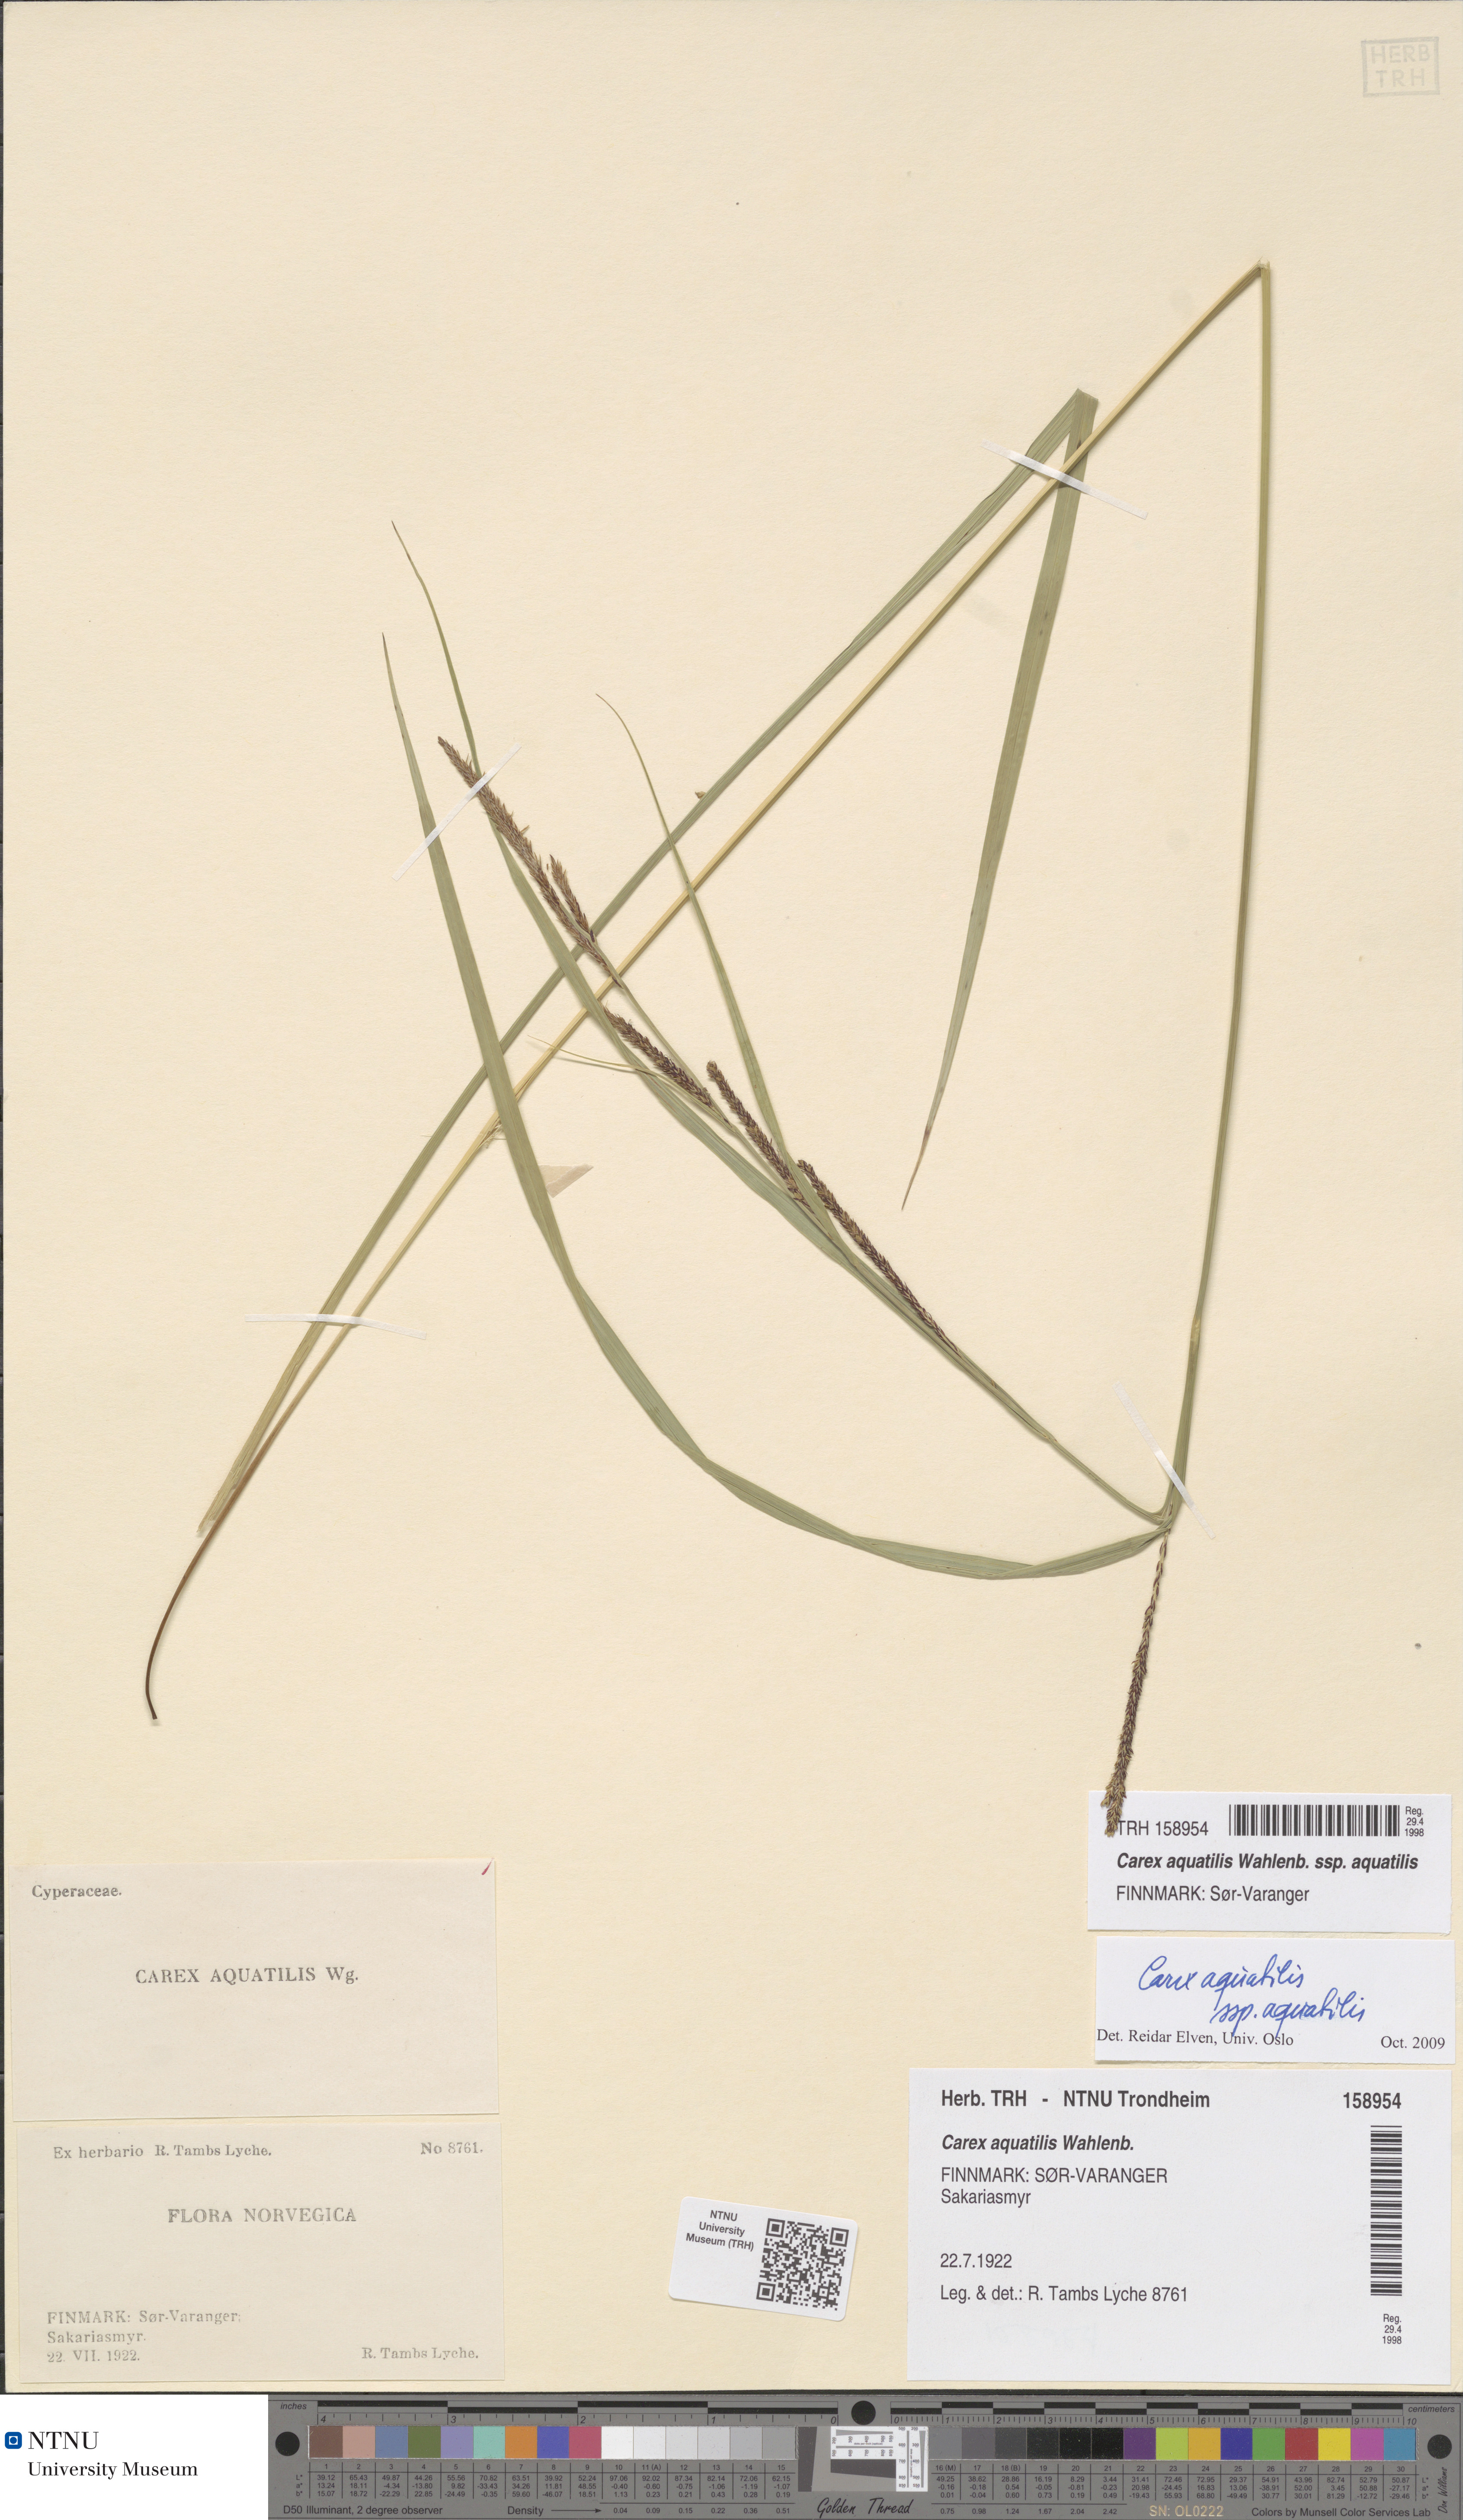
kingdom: Plantae
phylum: Tracheophyta
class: Liliopsida
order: Poales
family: Cyperaceae
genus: Carex
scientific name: Carex aquatilis
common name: Water sedge
